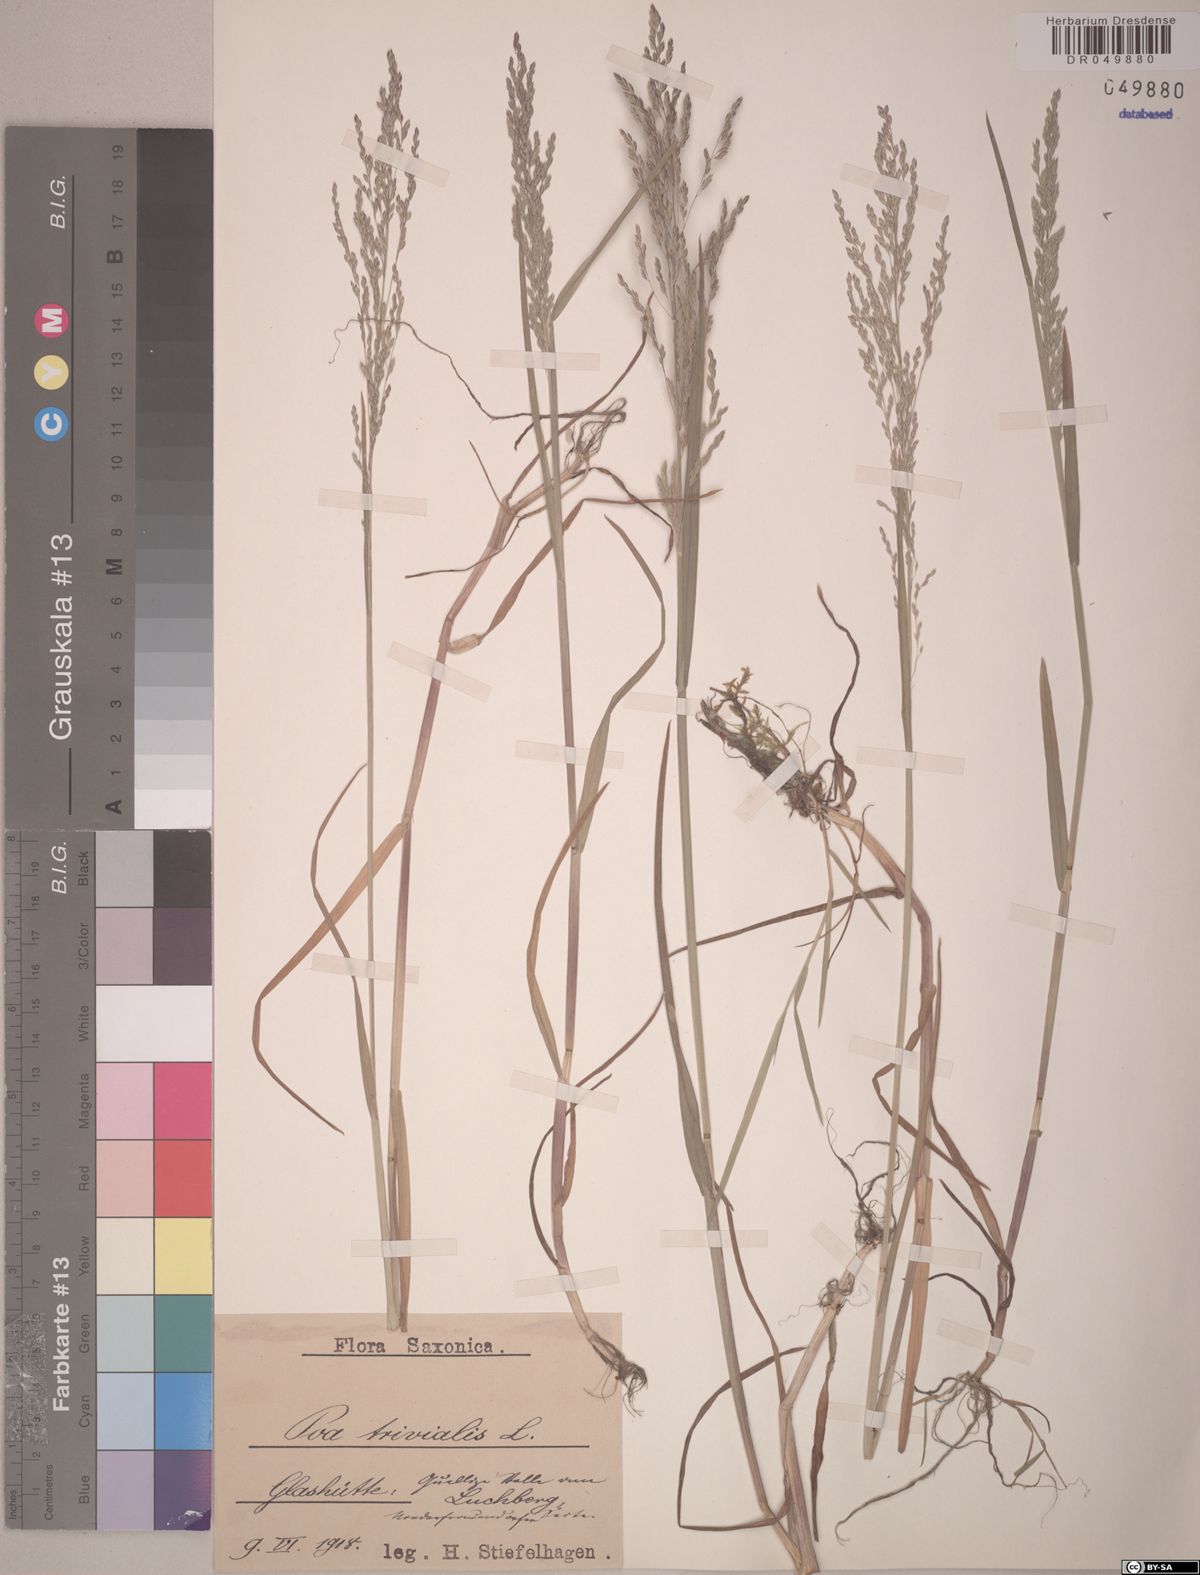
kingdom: Plantae
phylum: Tracheophyta
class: Liliopsida
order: Poales
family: Poaceae
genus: Poa
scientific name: Poa trivialis
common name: Rough bluegrass
